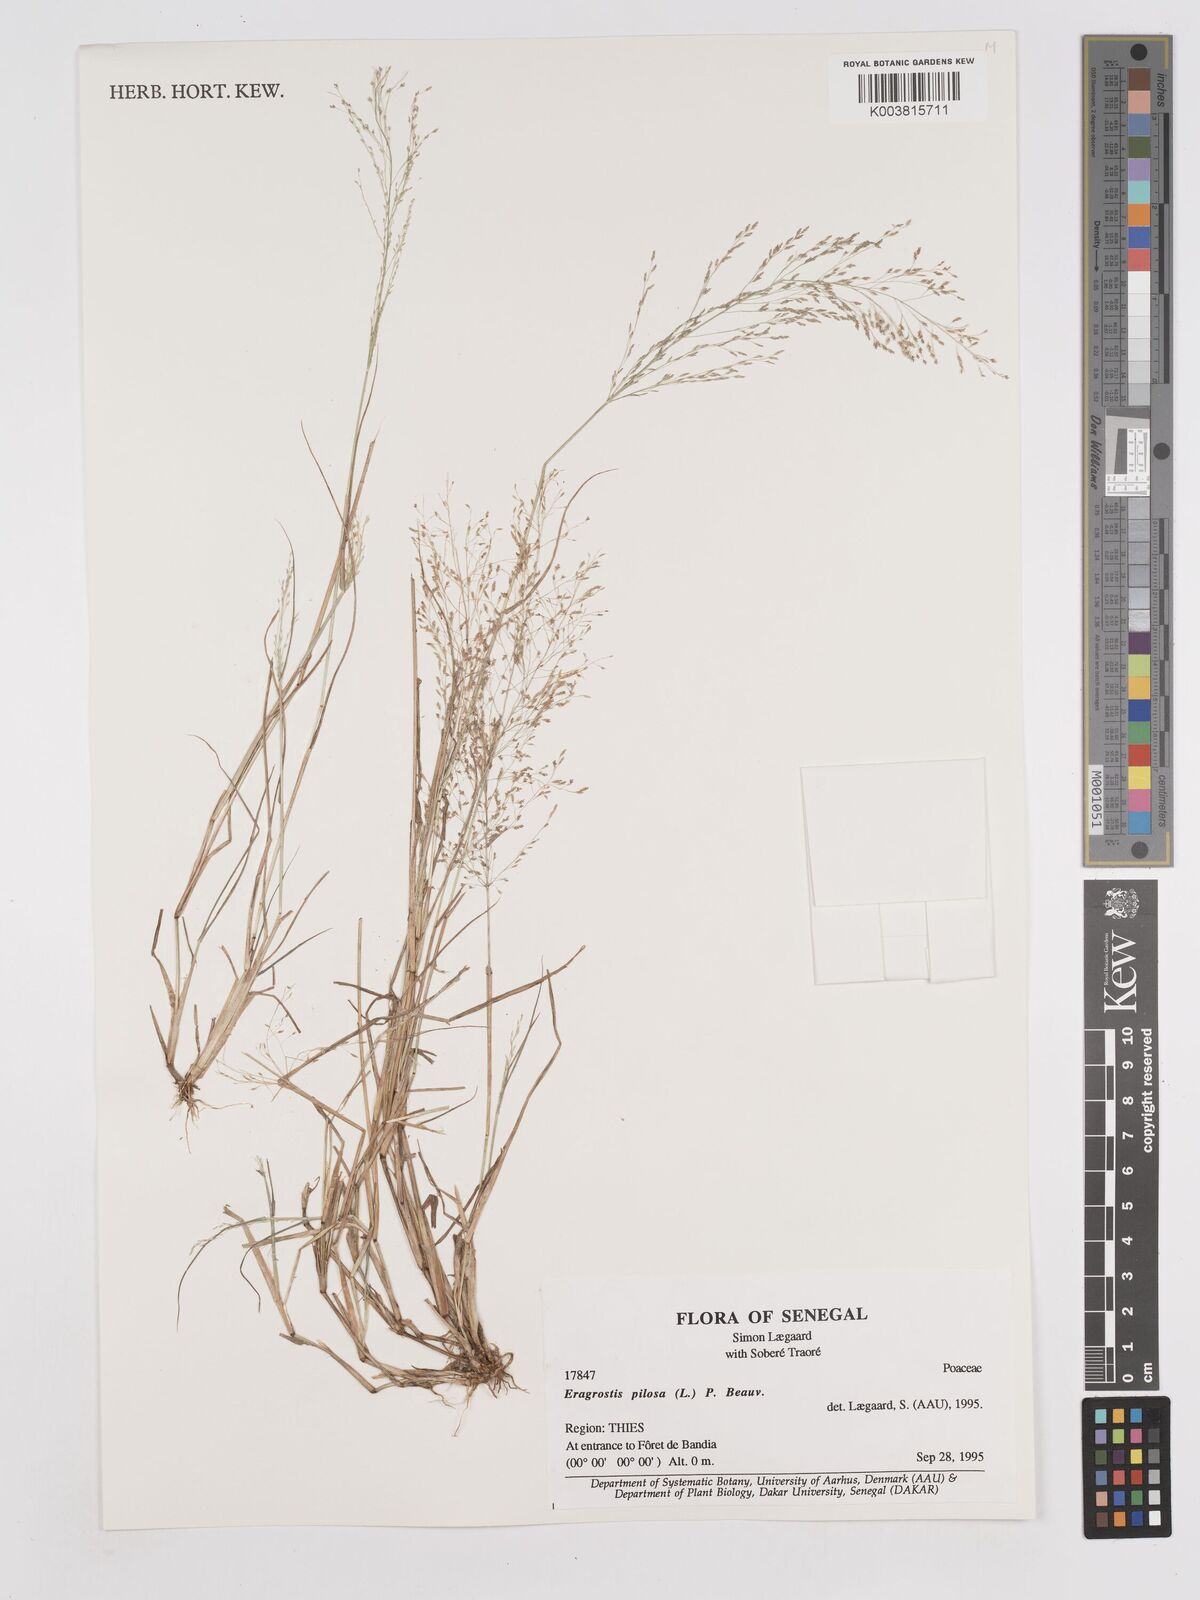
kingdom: Plantae
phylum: Tracheophyta
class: Liliopsida
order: Poales
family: Poaceae
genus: Eragrostis
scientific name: Eragrostis pilosa
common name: Indian lovegrass
